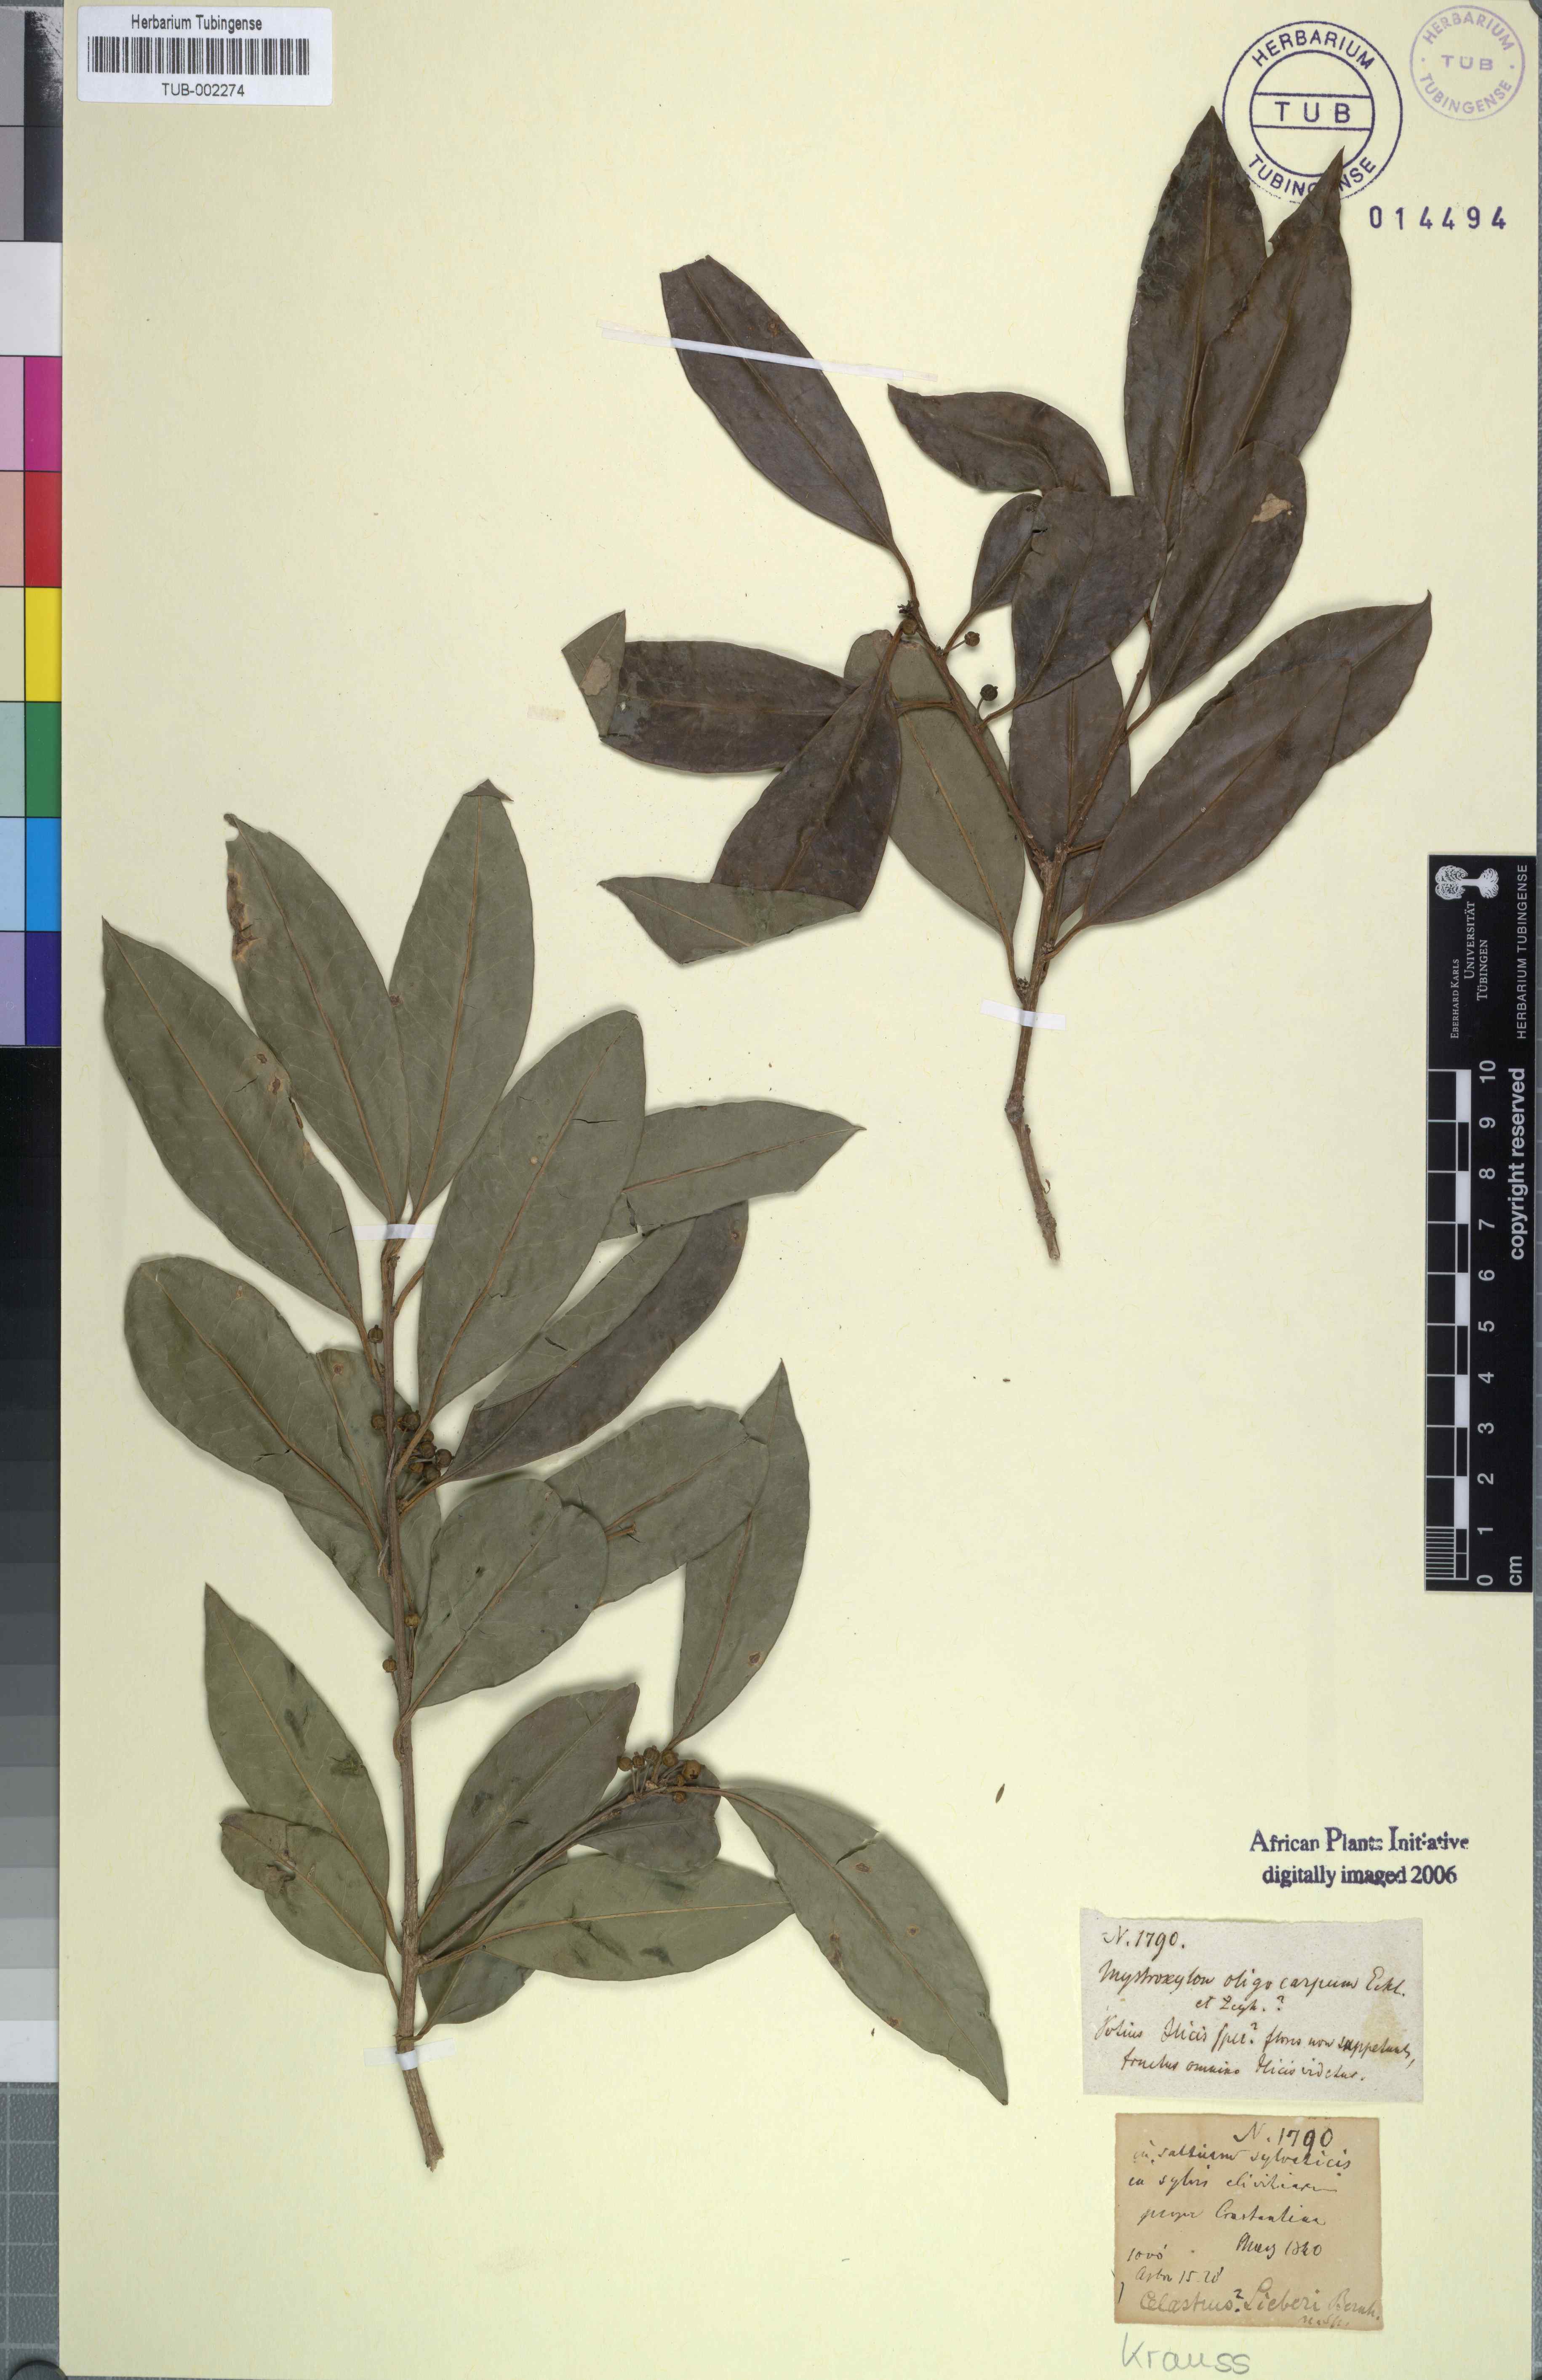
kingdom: Plantae
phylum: Tracheophyta
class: Magnoliopsida
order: Aquifoliales
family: Aquifoliaceae
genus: Ilex
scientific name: Ilex mitis
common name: African holly
